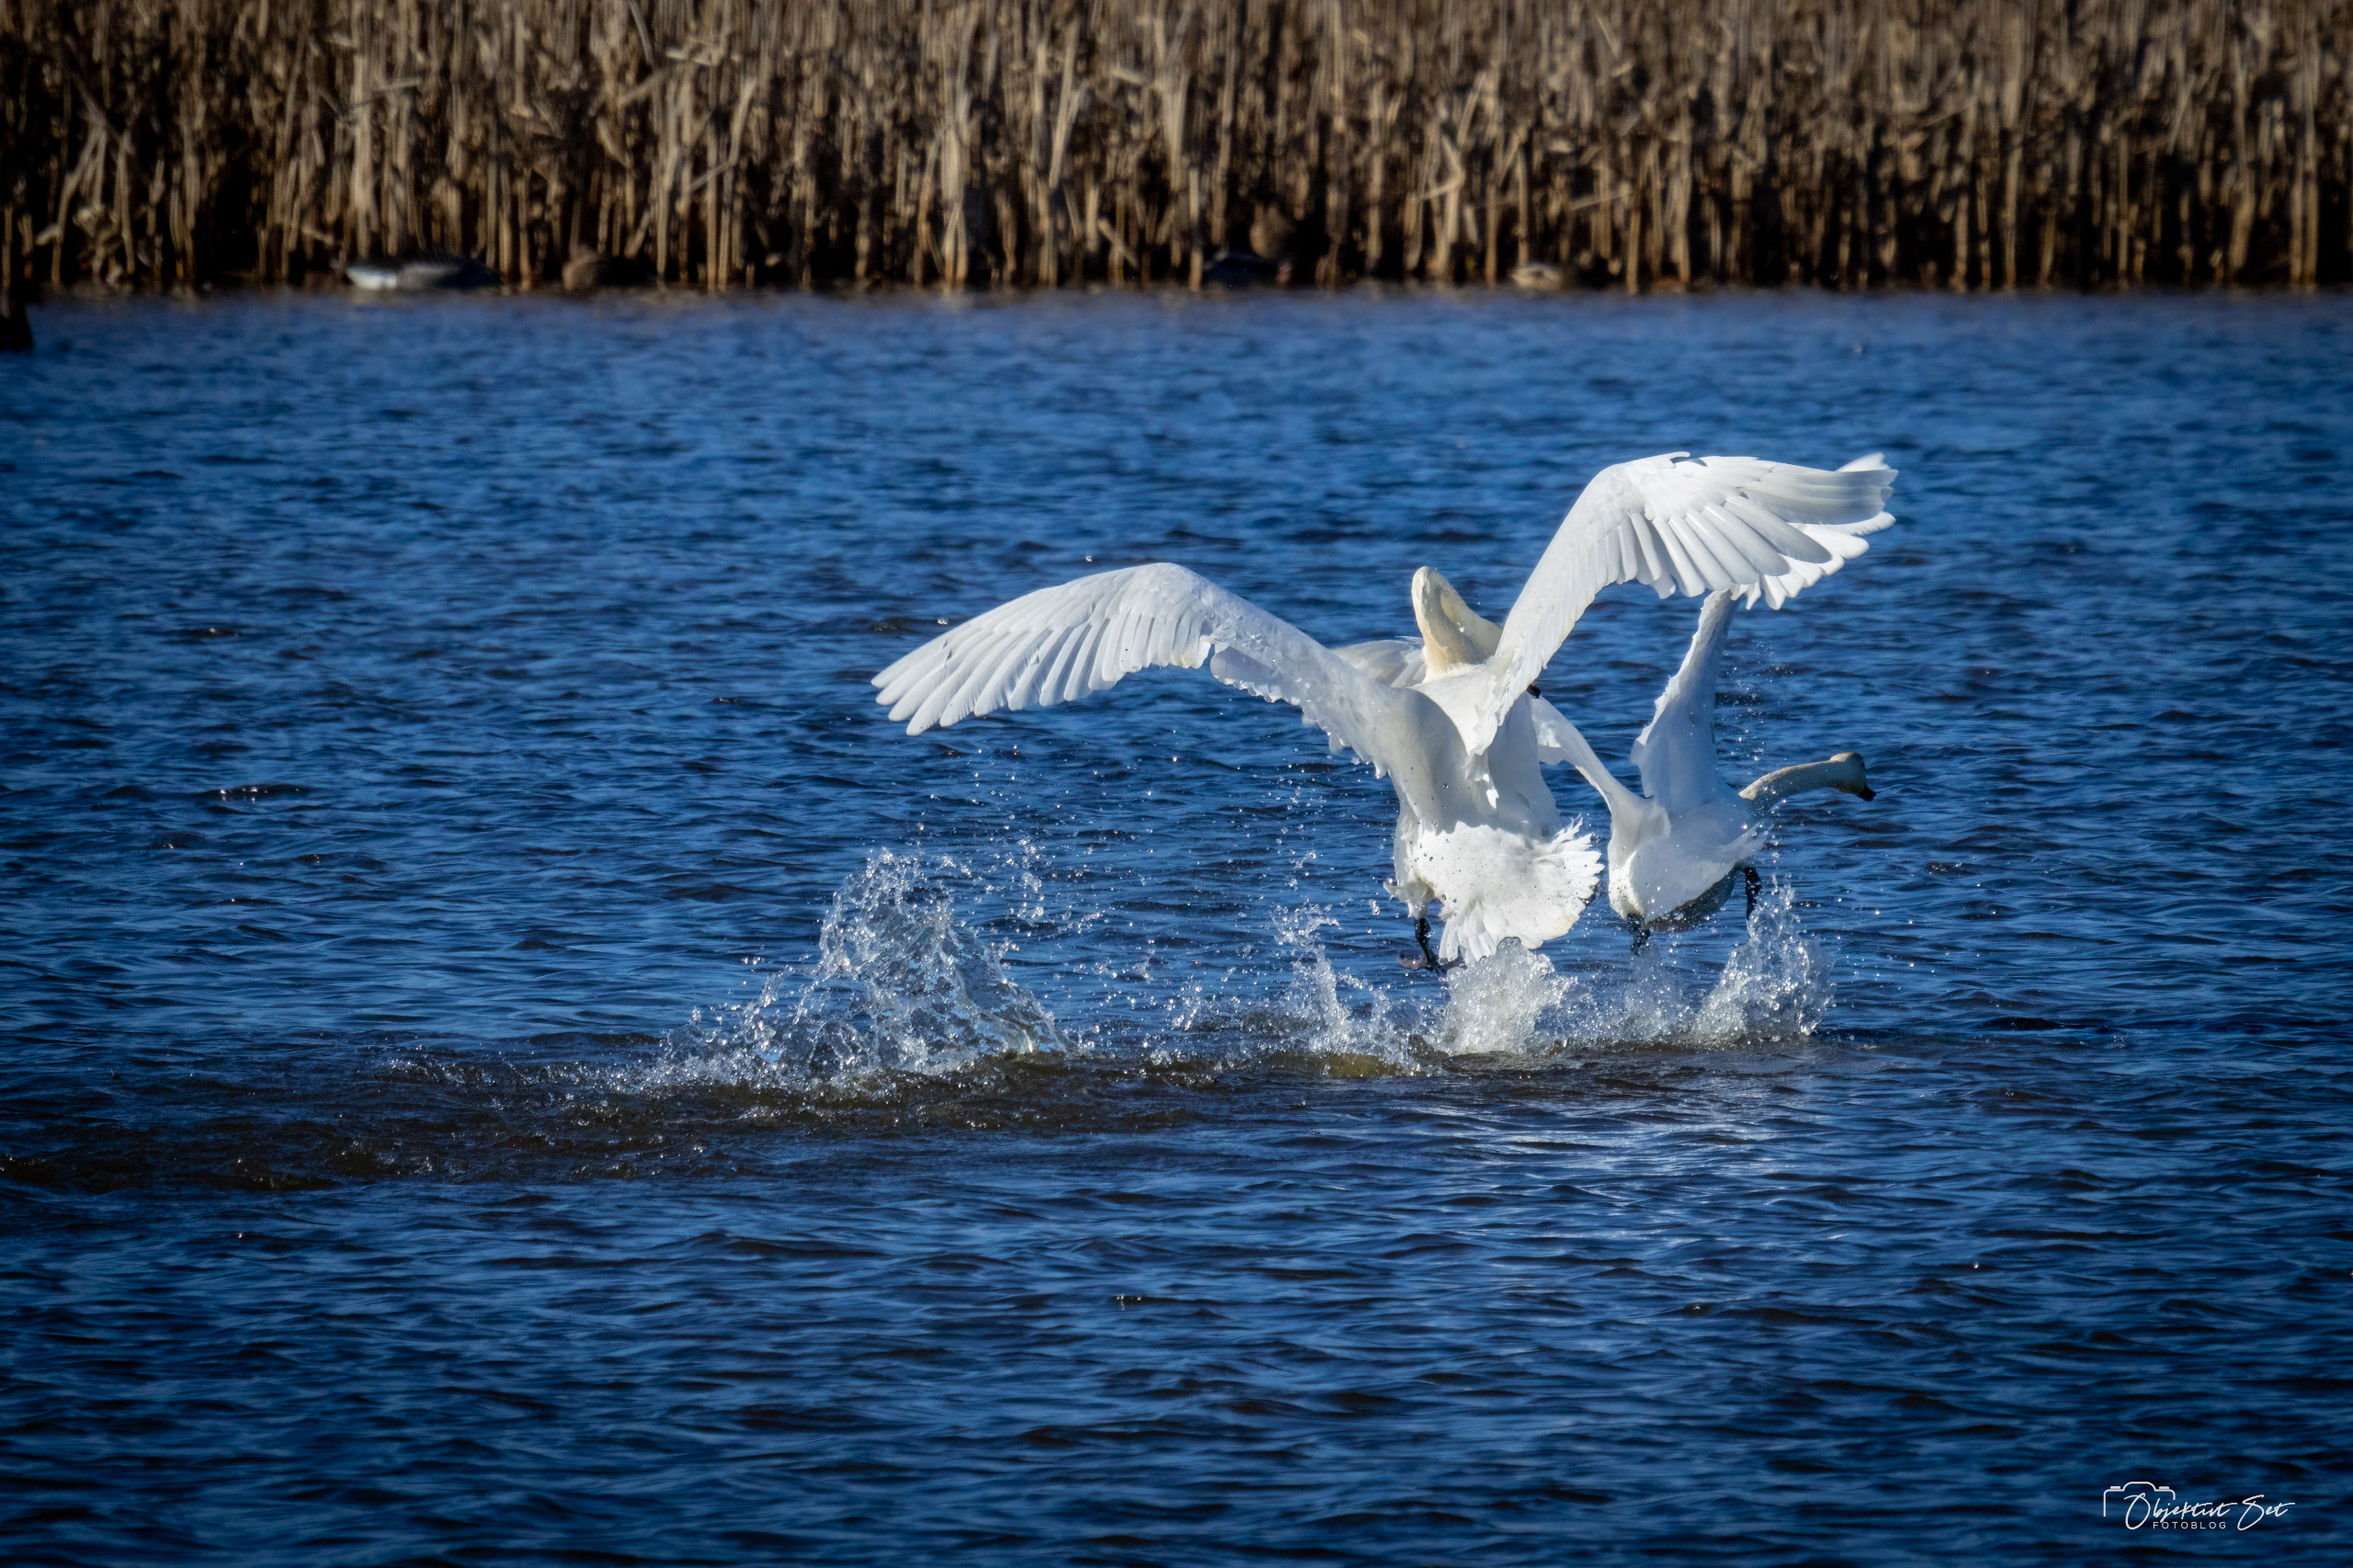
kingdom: Animalia
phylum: Chordata
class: Aves
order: Anseriformes
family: Anatidae
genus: Cygnus
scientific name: Cygnus olor
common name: Knopsvane
